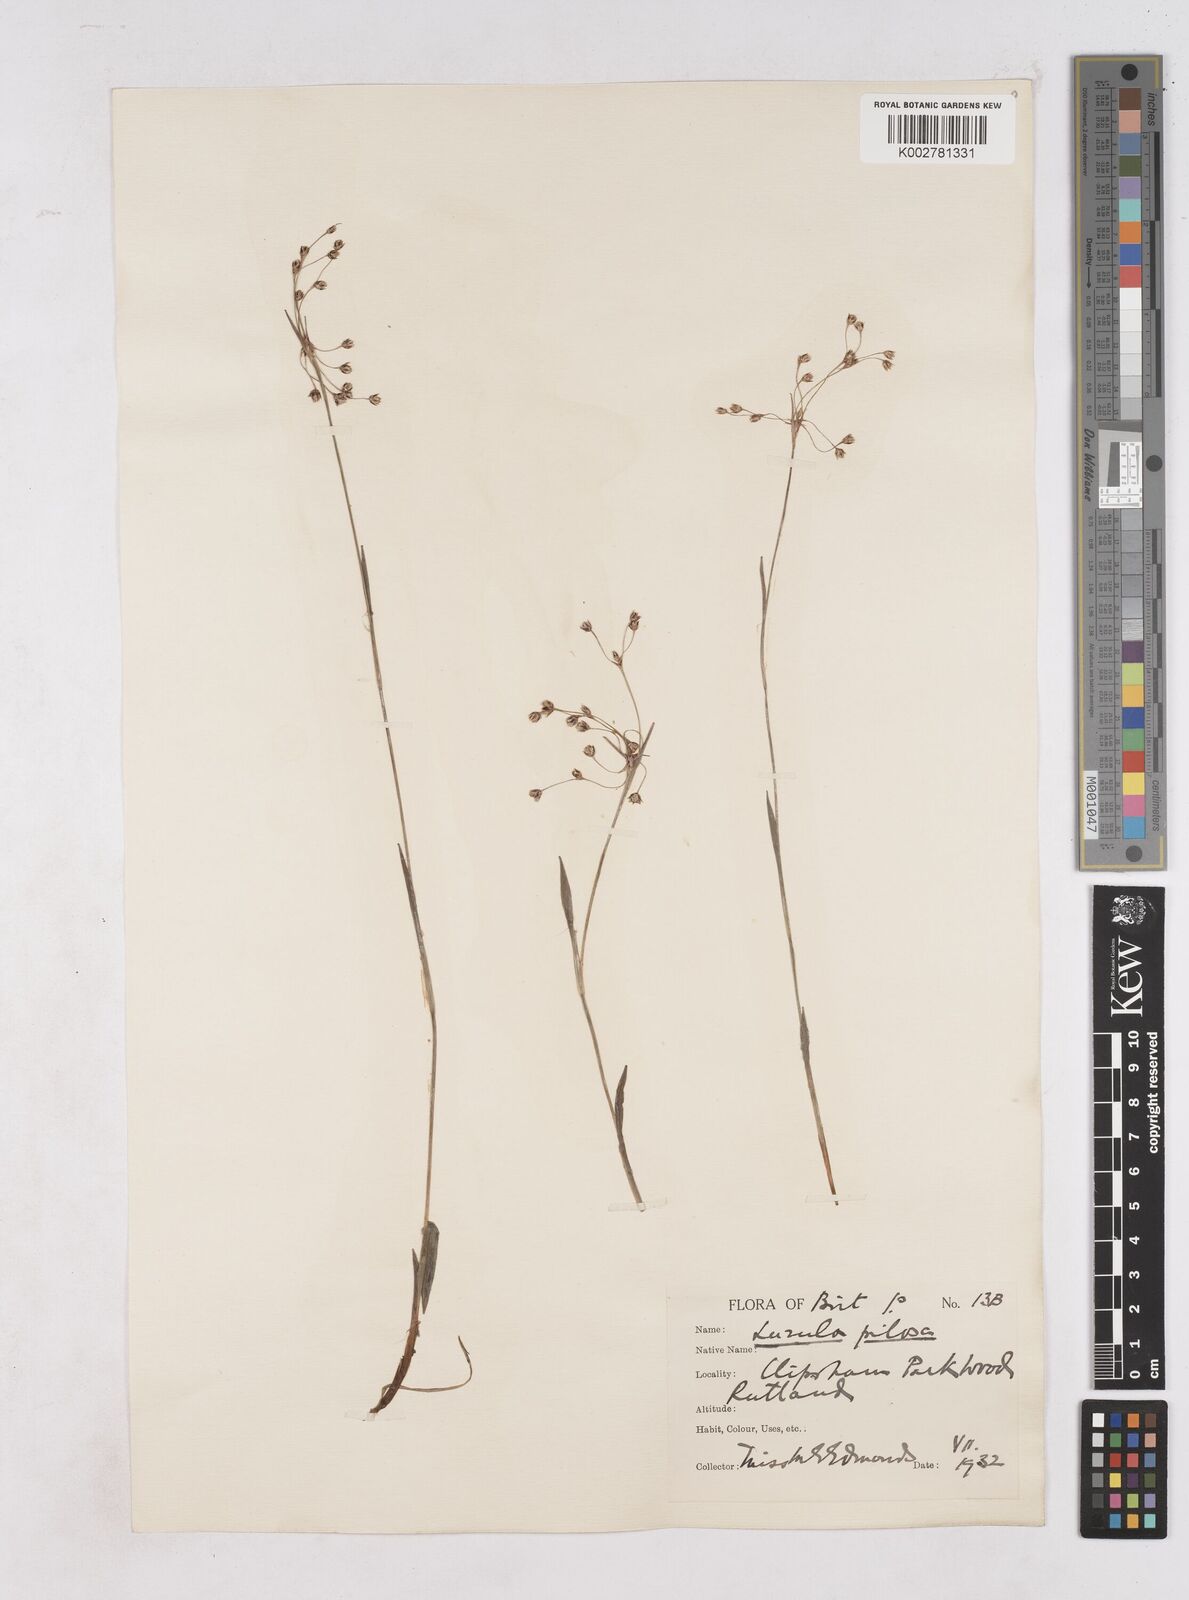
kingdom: Plantae
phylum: Tracheophyta
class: Liliopsida
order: Poales
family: Juncaceae
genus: Luzula
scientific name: Luzula pilosa
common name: Hairy wood-rush
